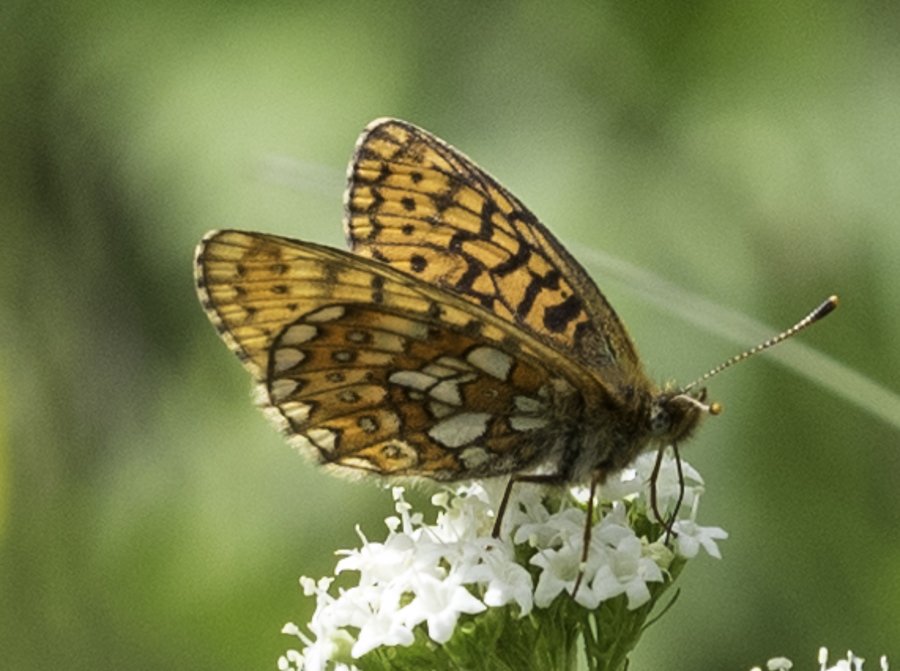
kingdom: Animalia
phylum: Arthropoda
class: Insecta
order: Lepidoptera
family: Nymphalidae
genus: Boloria
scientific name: Boloria eunomia
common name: Bog Fritillary
